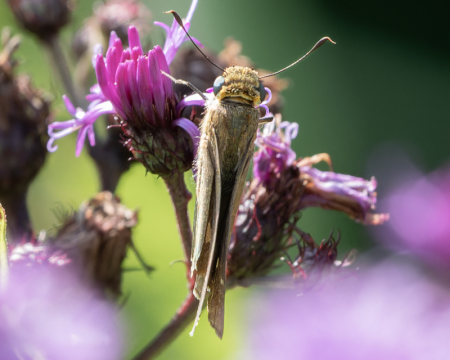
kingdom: Animalia
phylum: Arthropoda
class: Insecta
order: Lepidoptera
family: Hesperiidae
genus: Panoquina
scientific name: Panoquina ocola
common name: Ocola Skipper
